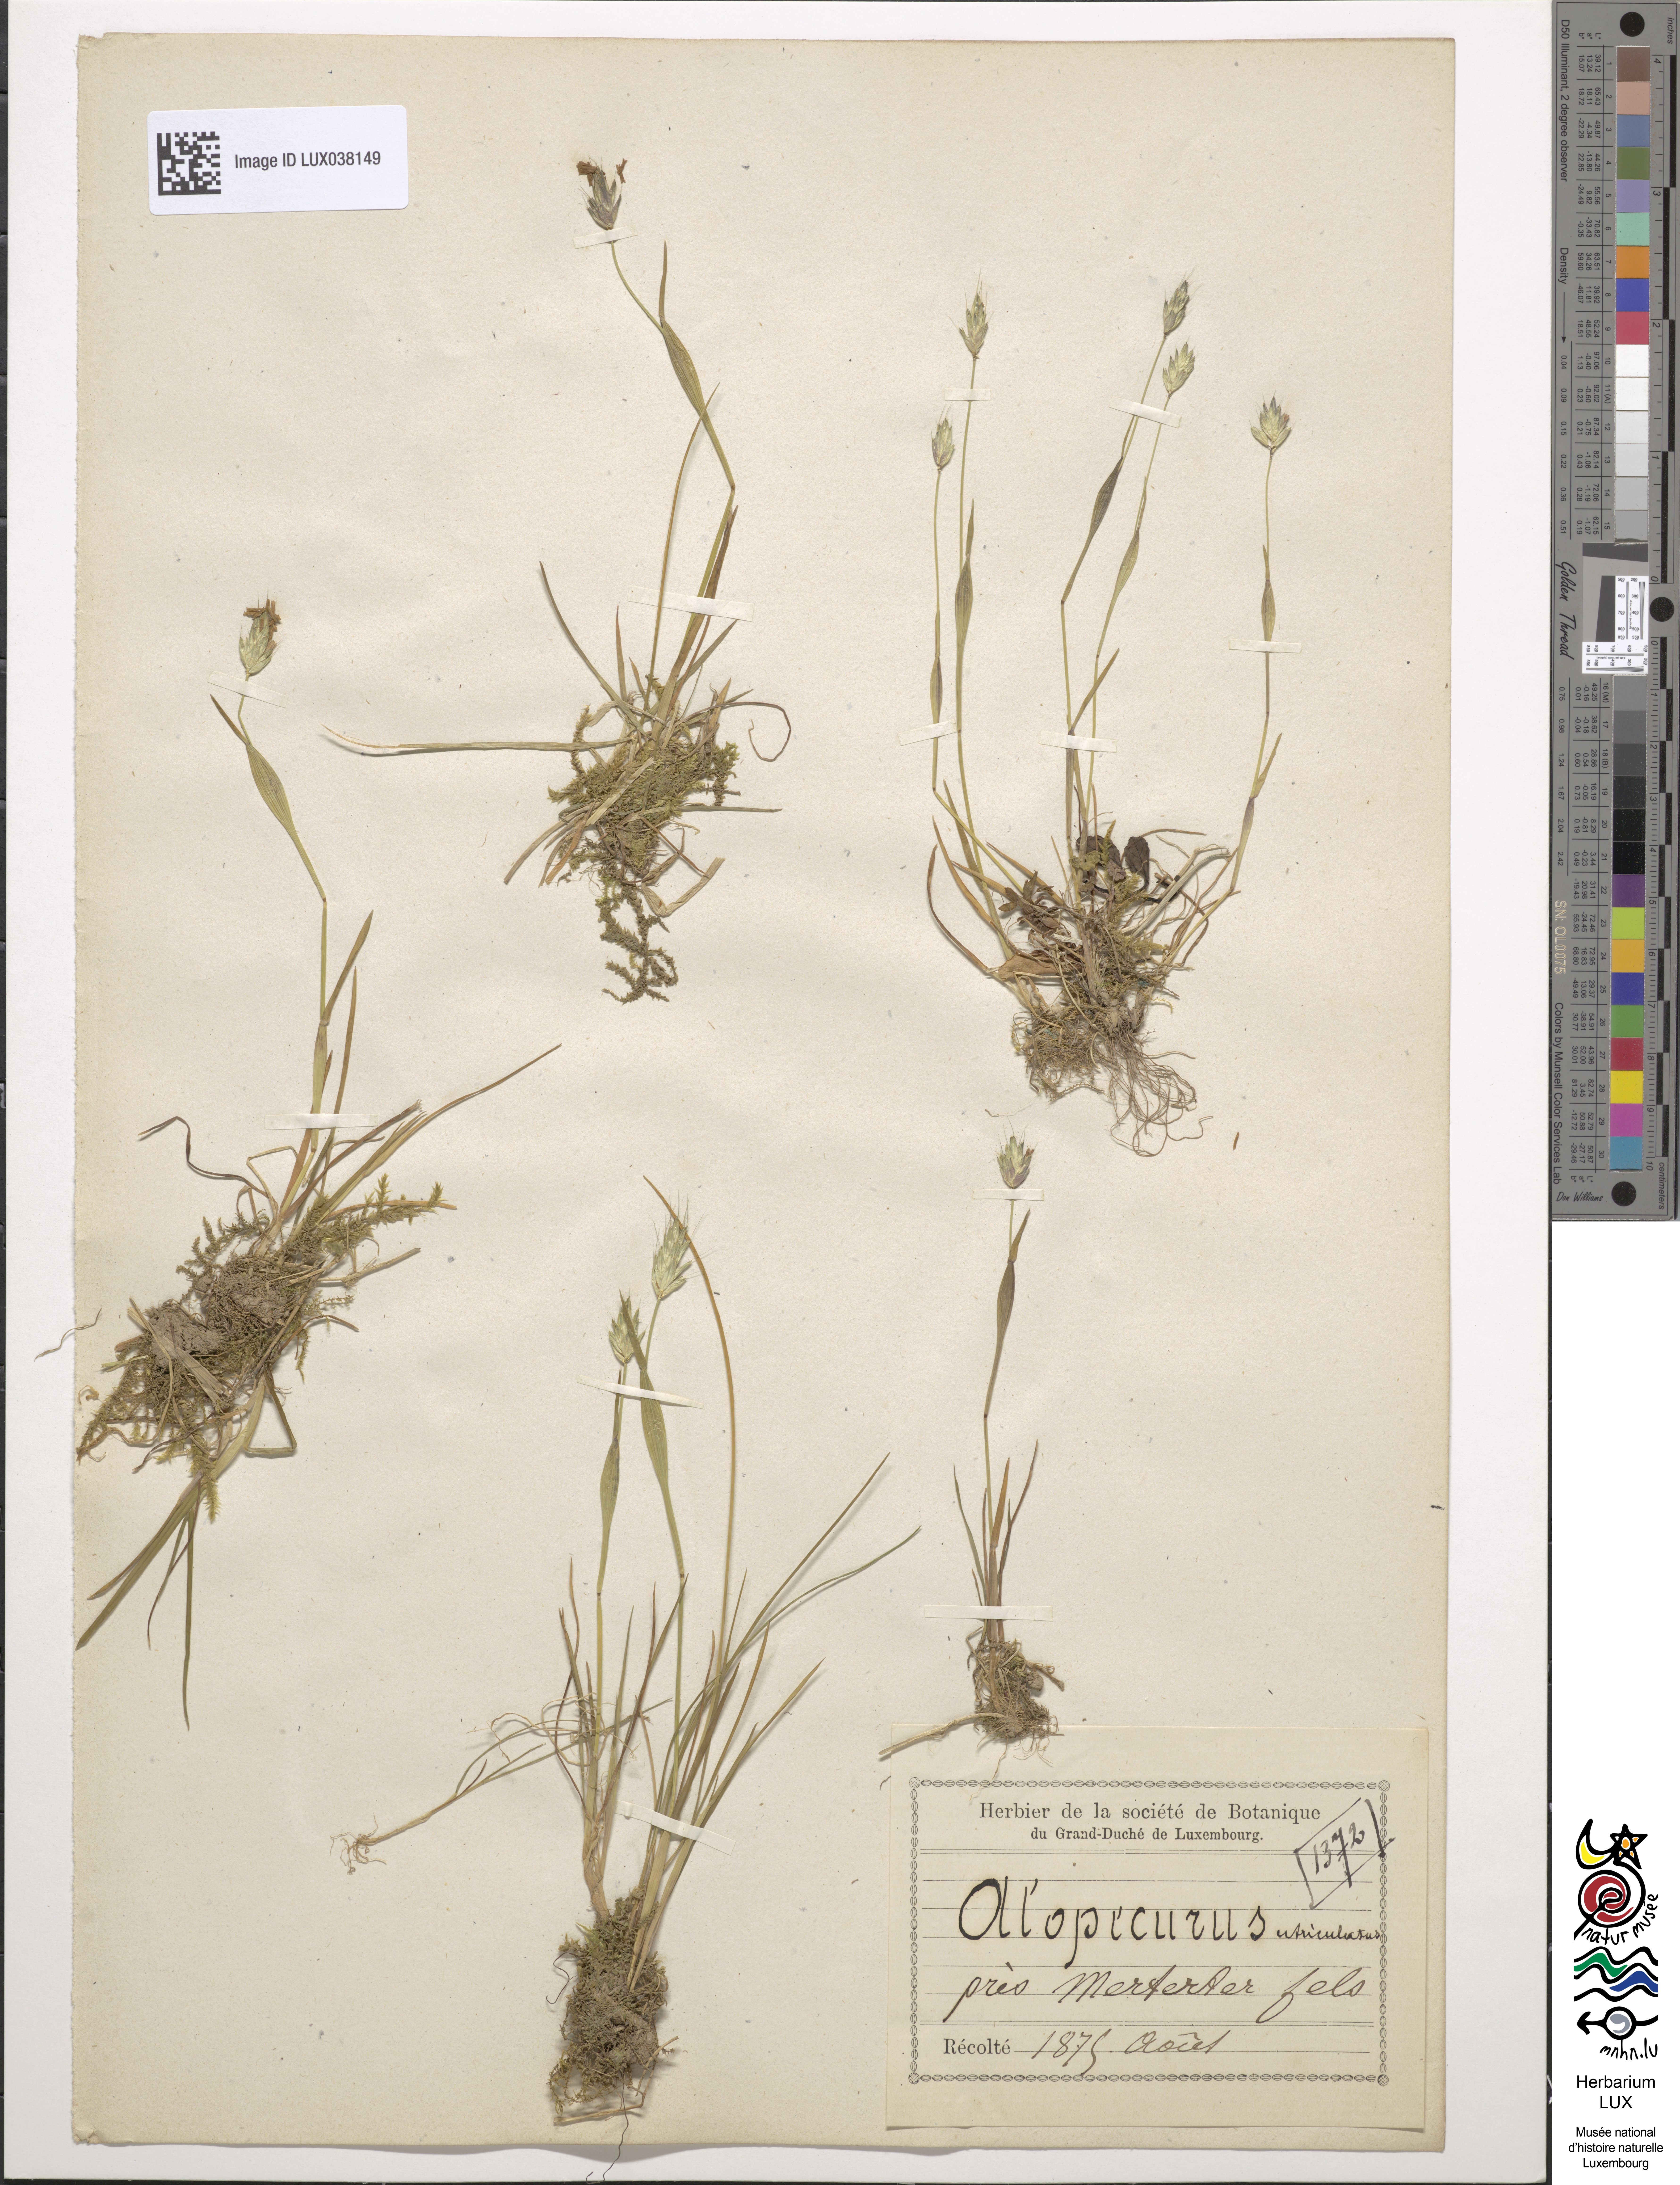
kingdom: Plantae
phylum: Tracheophyta
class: Liliopsida
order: Poales
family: Poaceae
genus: Alopecurus
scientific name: Alopecurus rendlei
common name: Rendle's meadow foxtail
